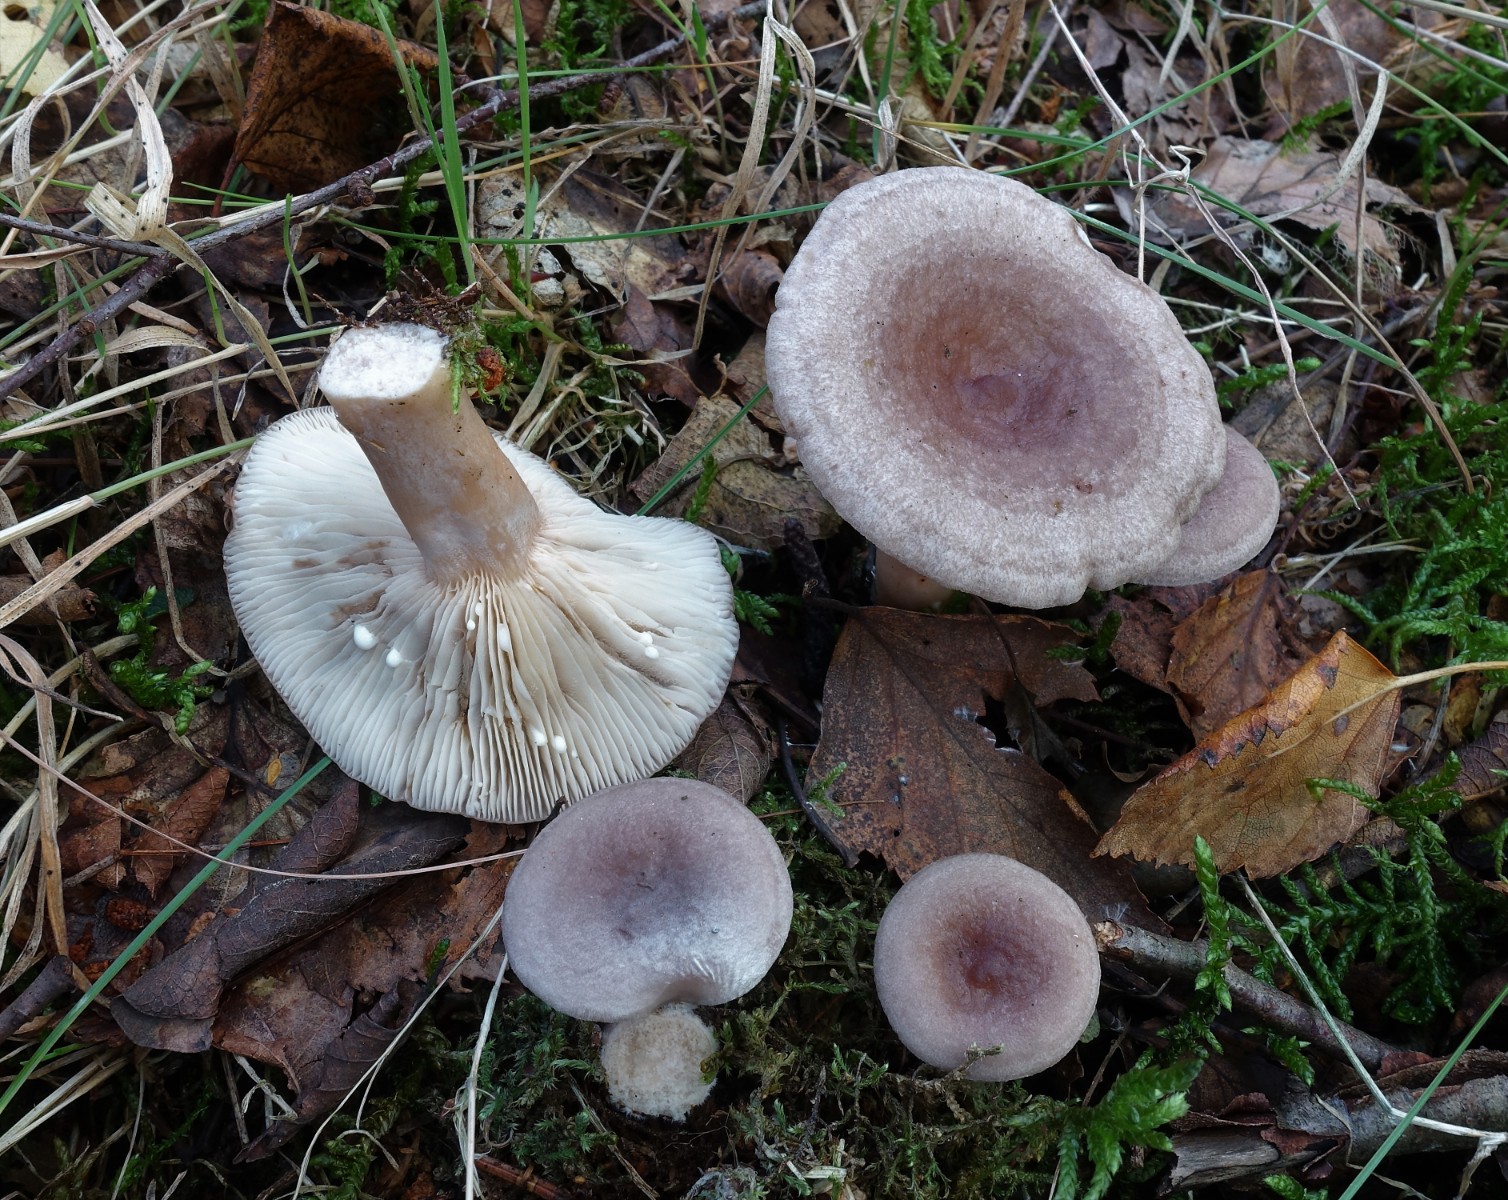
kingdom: Fungi
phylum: Basidiomycota
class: Agaricomycetes
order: Russulales
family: Russulaceae
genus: Lactarius
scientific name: Lactarius vietus
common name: violetgrå mælkehat
